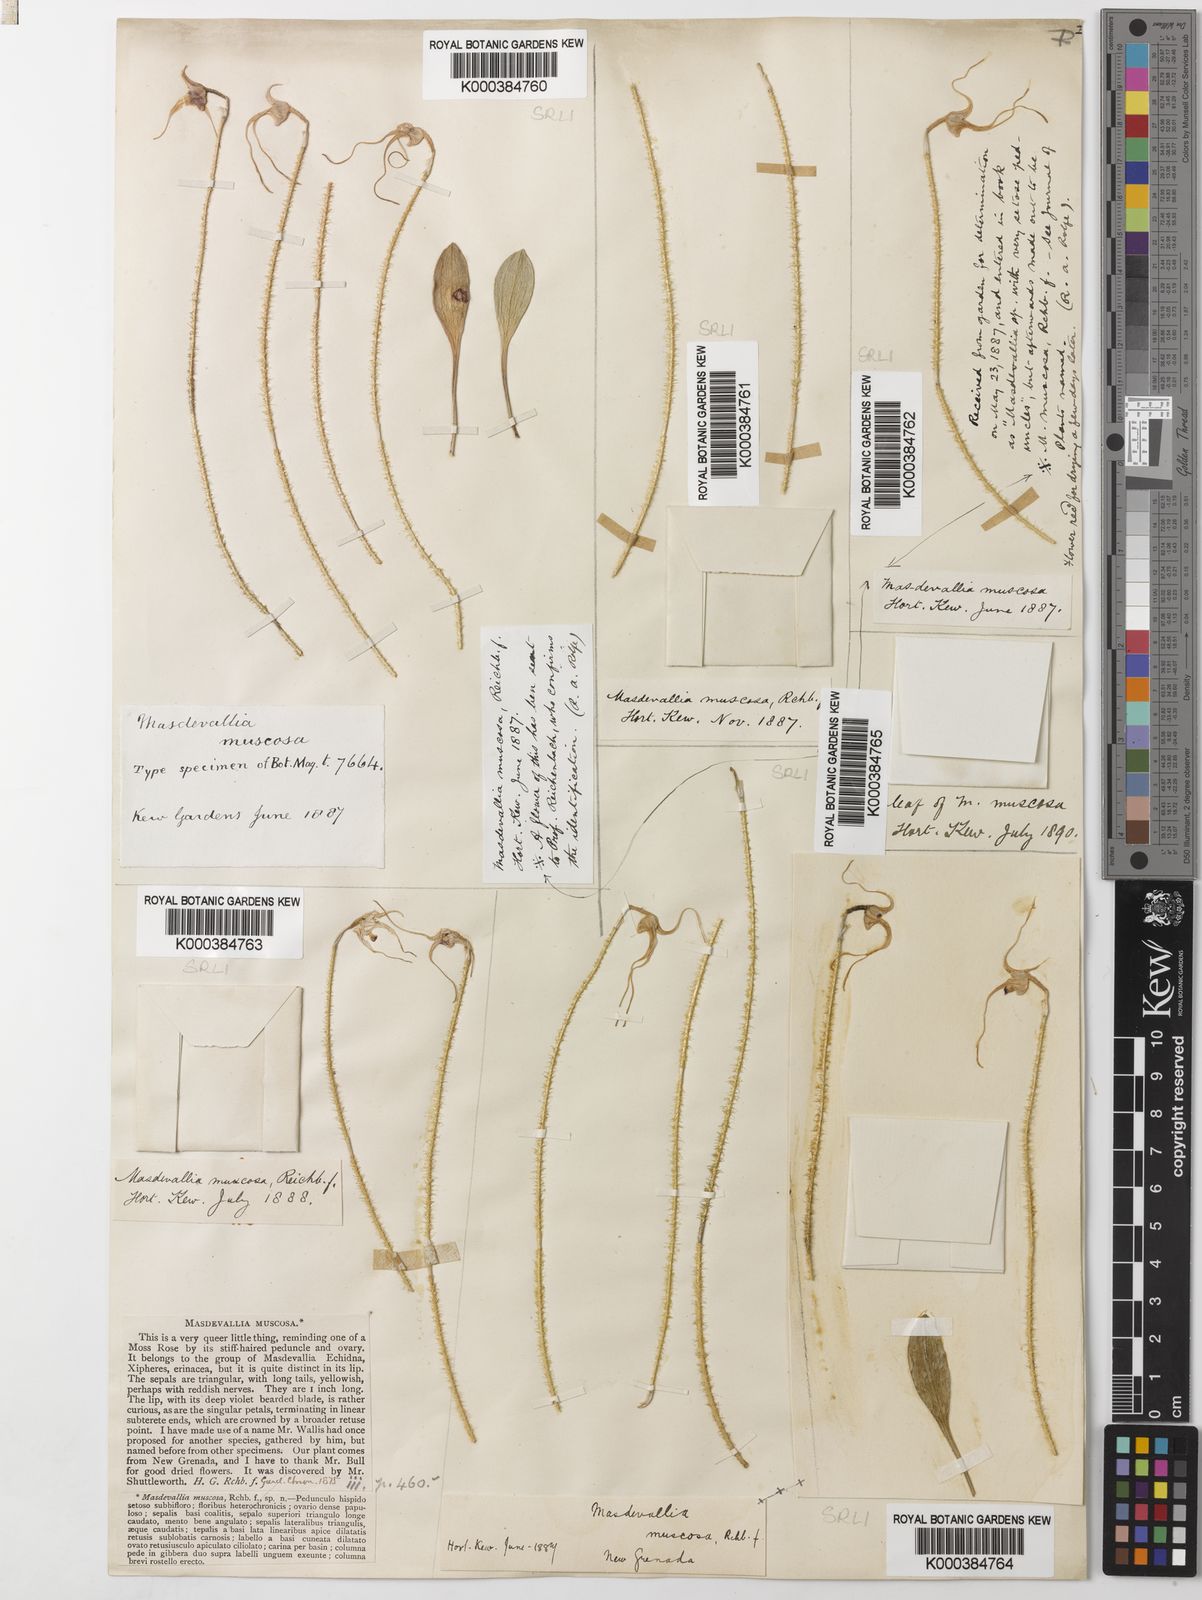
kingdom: Plantae
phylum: Tracheophyta
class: Liliopsida
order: Asparagales
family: Orchidaceae
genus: Porroglossum
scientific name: Porroglossum muscosum
